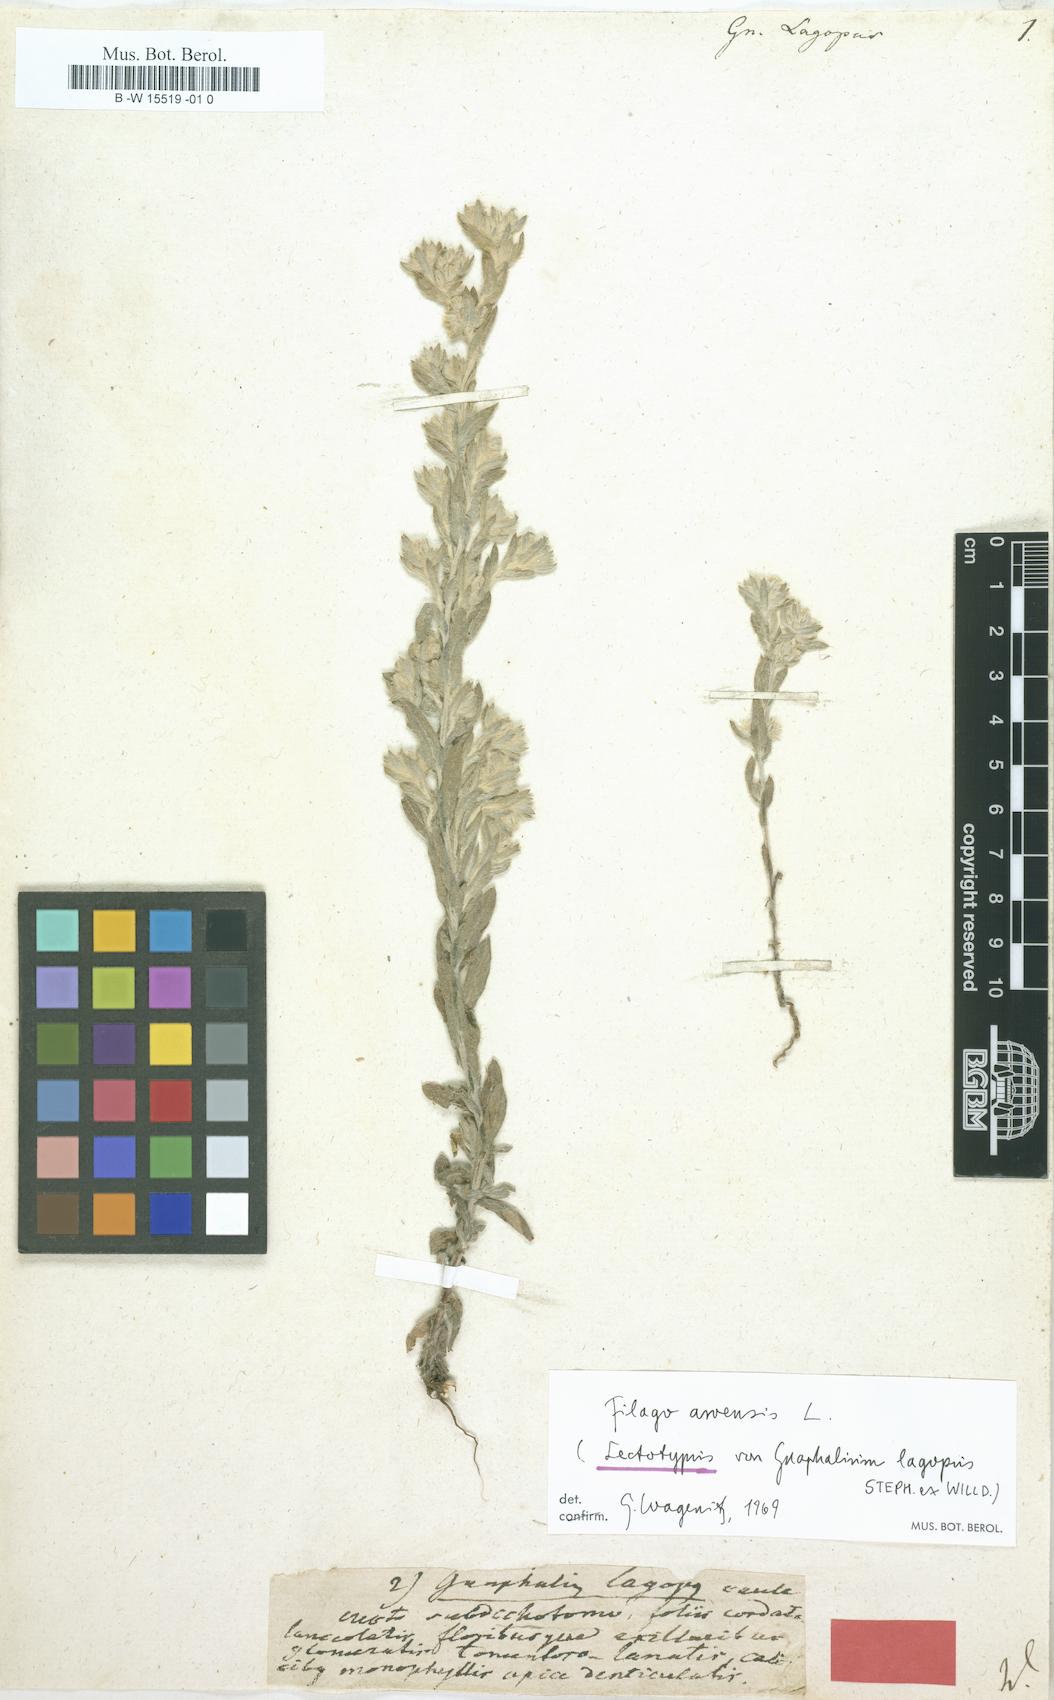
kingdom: Plantae
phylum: Tracheophyta
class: Magnoliopsida
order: Asterales
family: Asteraceae
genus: Filago
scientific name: Filago arvensis
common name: Field cudweed
